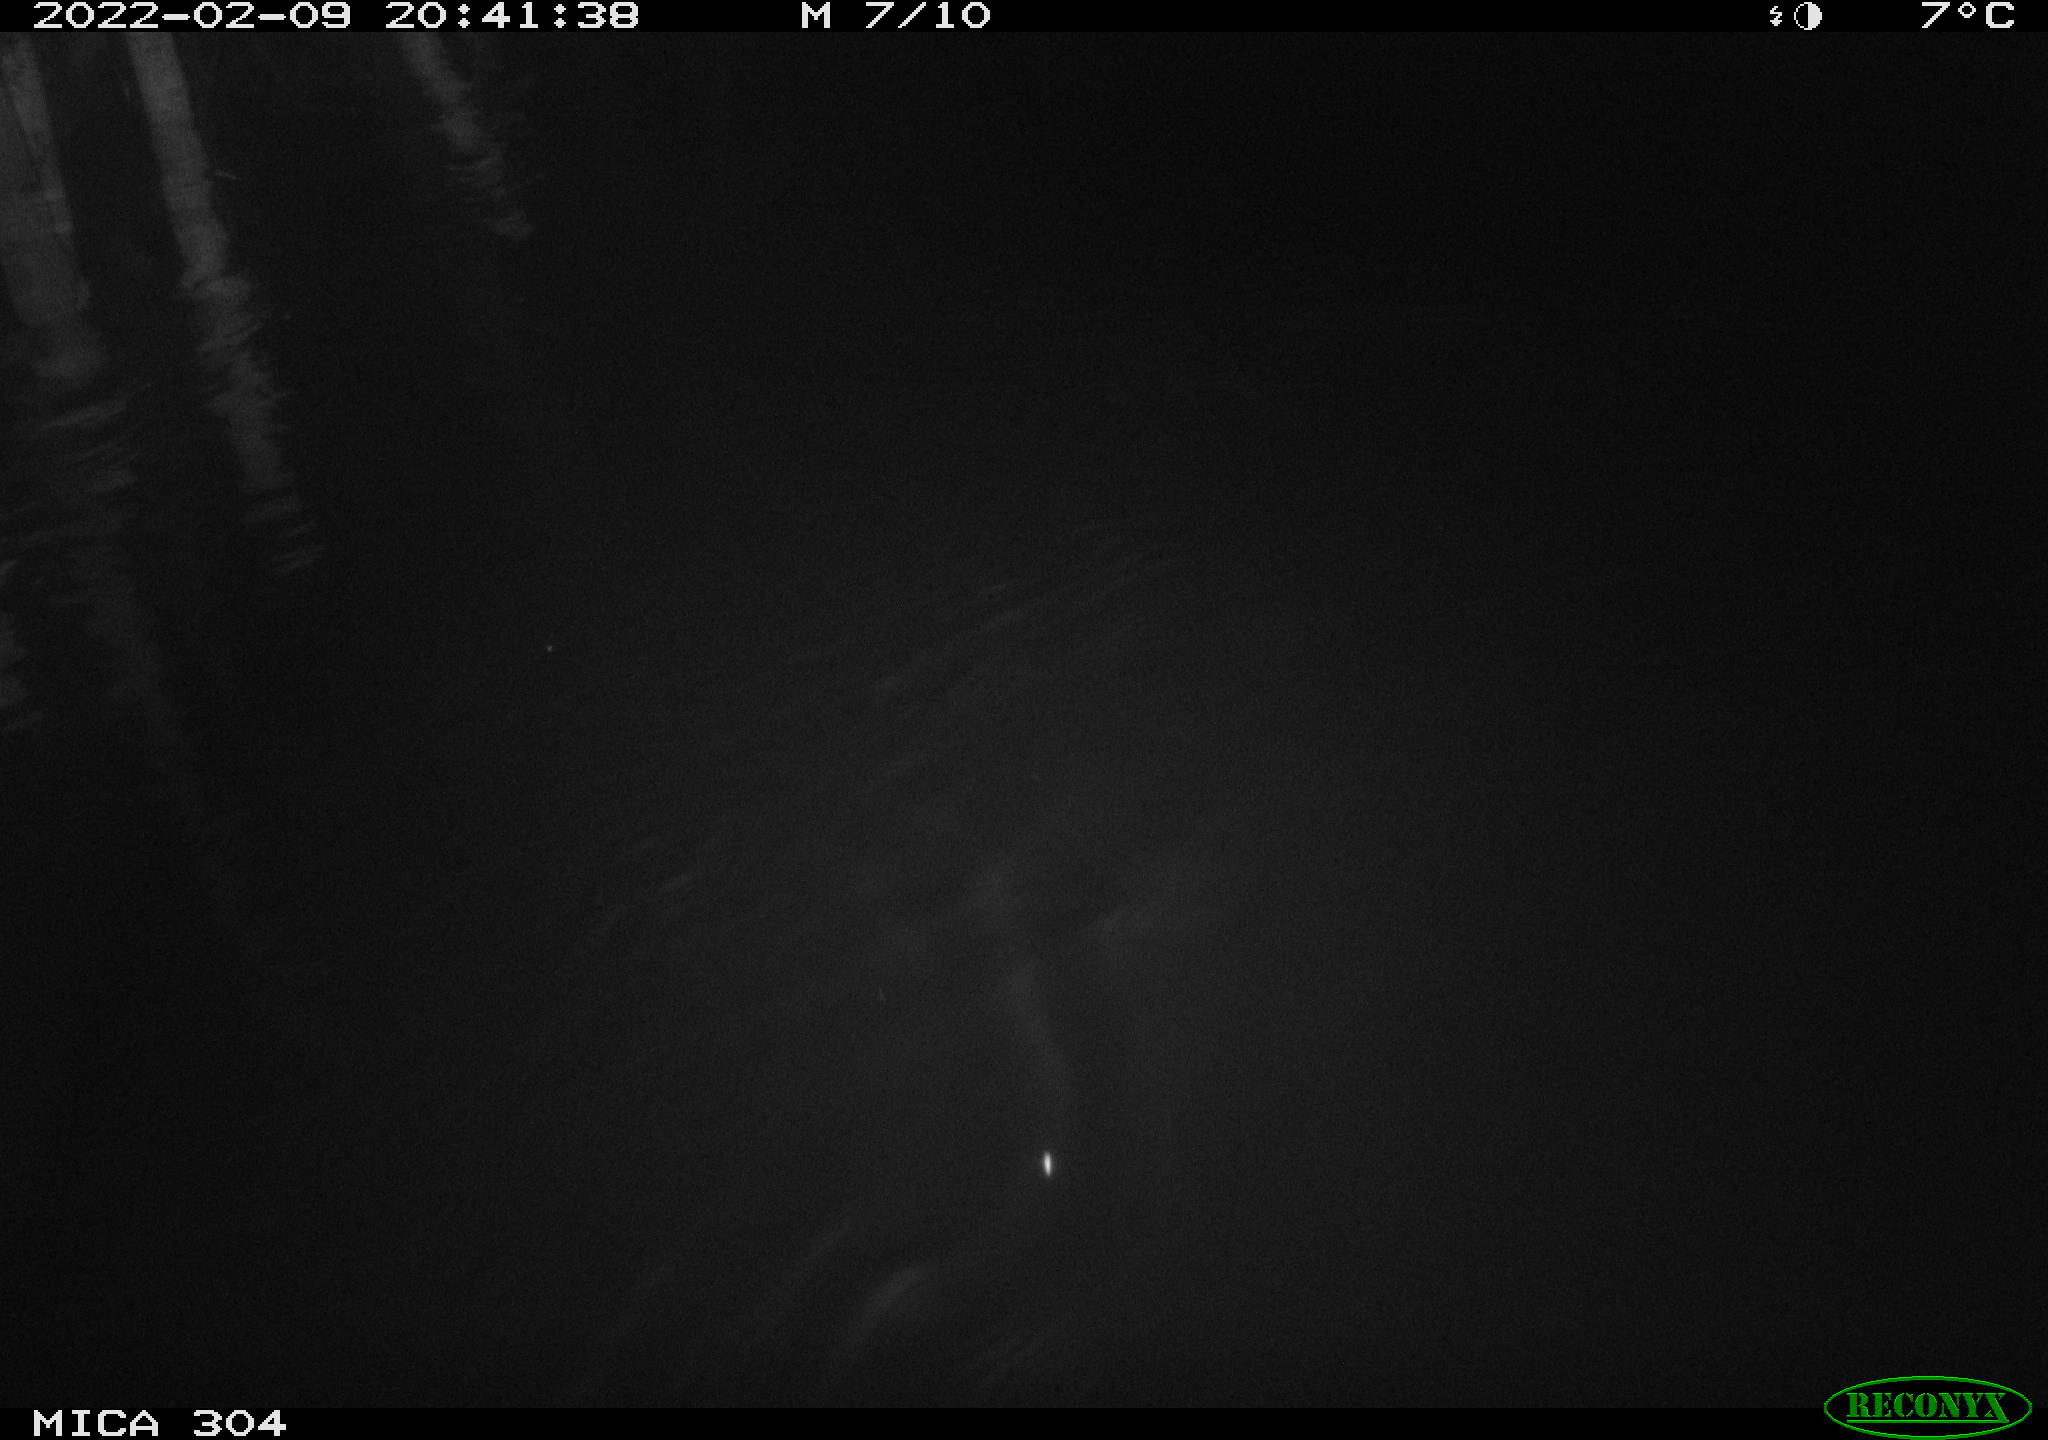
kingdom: Animalia
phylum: Chordata
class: Mammalia
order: Rodentia
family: Muridae
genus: Rattus
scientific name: Rattus norvegicus
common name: Brown rat
